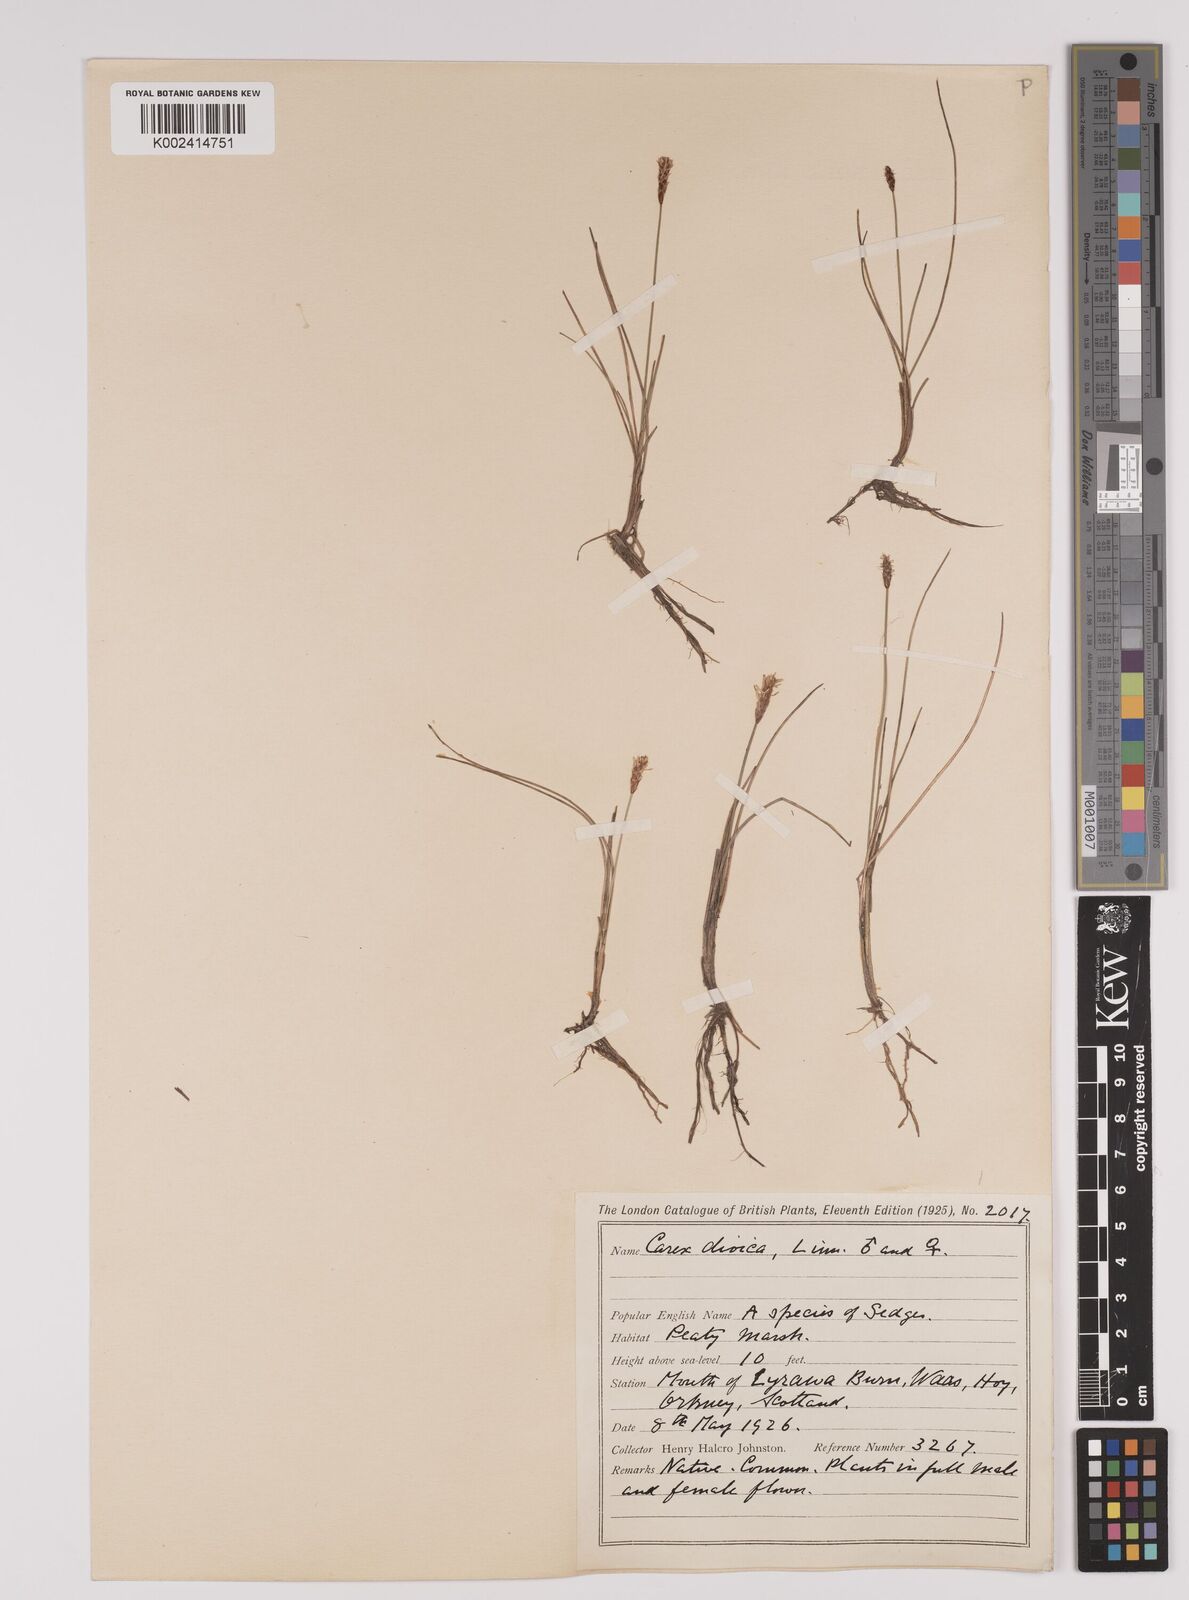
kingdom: Plantae
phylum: Tracheophyta
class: Liliopsida
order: Poales
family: Cyperaceae
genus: Carex
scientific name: Carex dioica
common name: Dioecious sedge
